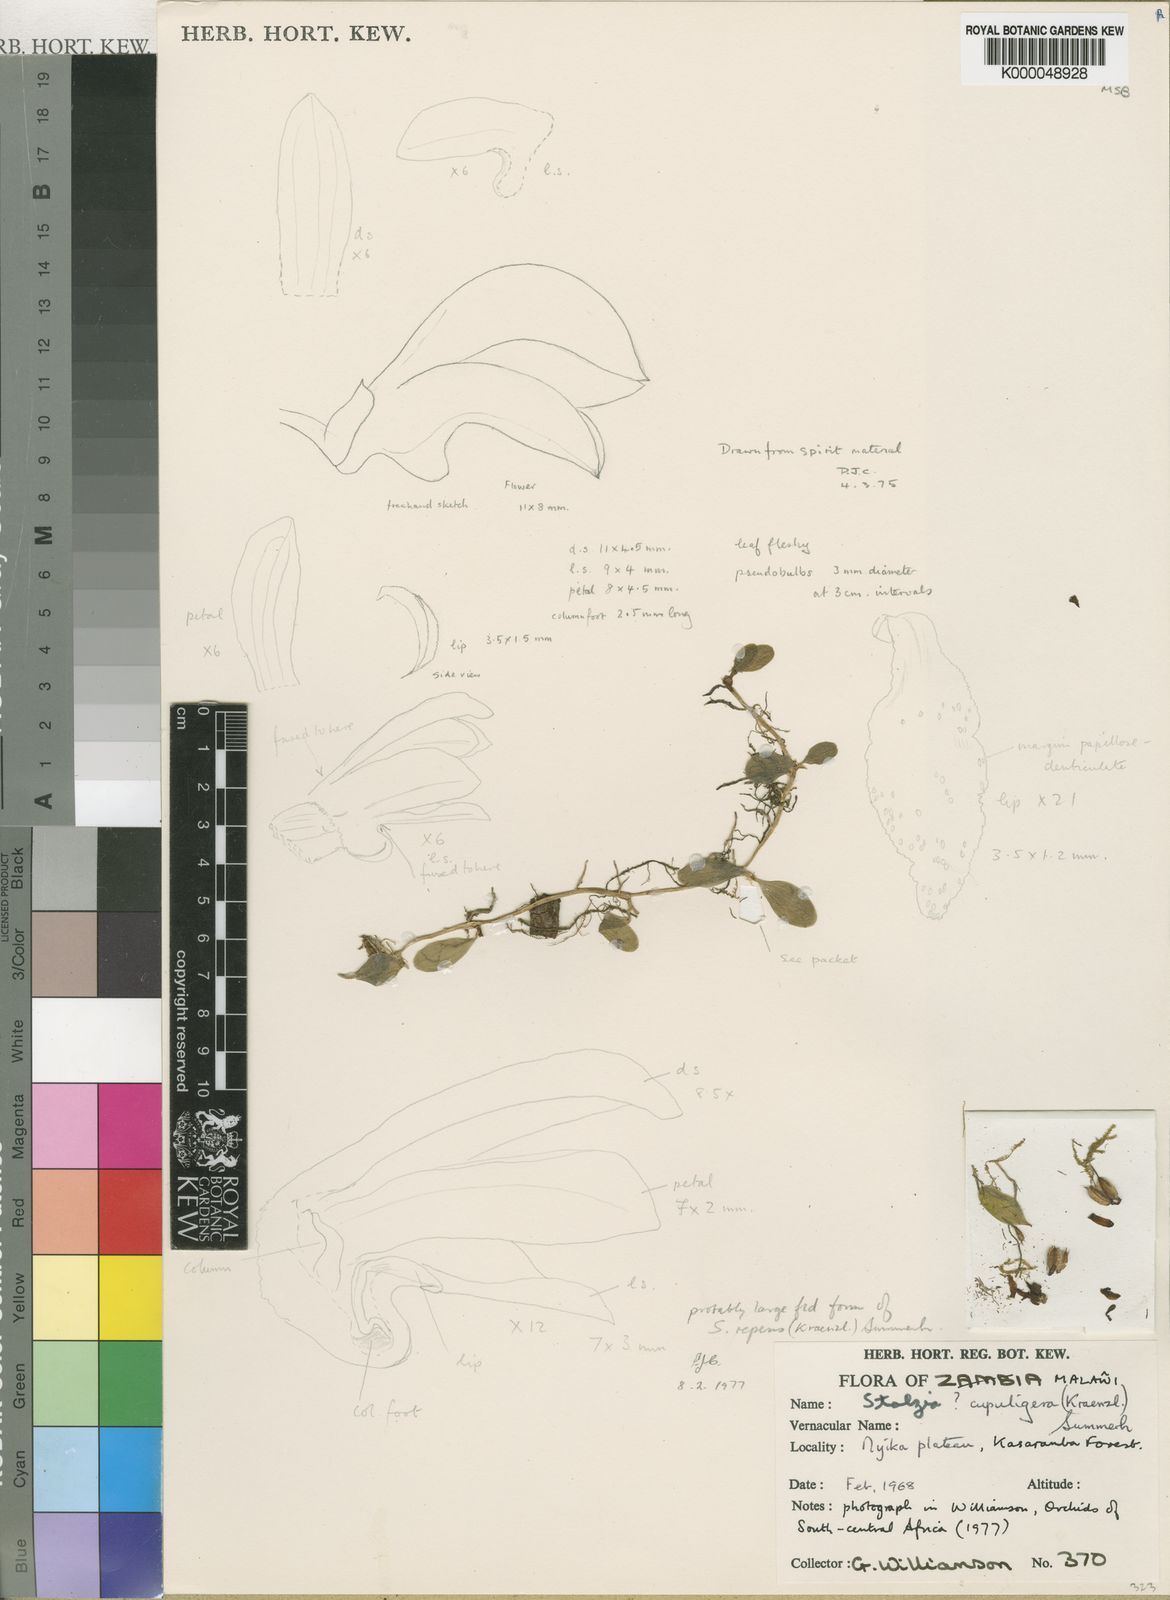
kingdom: Plantae
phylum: Tracheophyta
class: Liliopsida
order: Asparagales
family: Orchidaceae
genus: Porpax
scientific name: Porpax williamsonii
